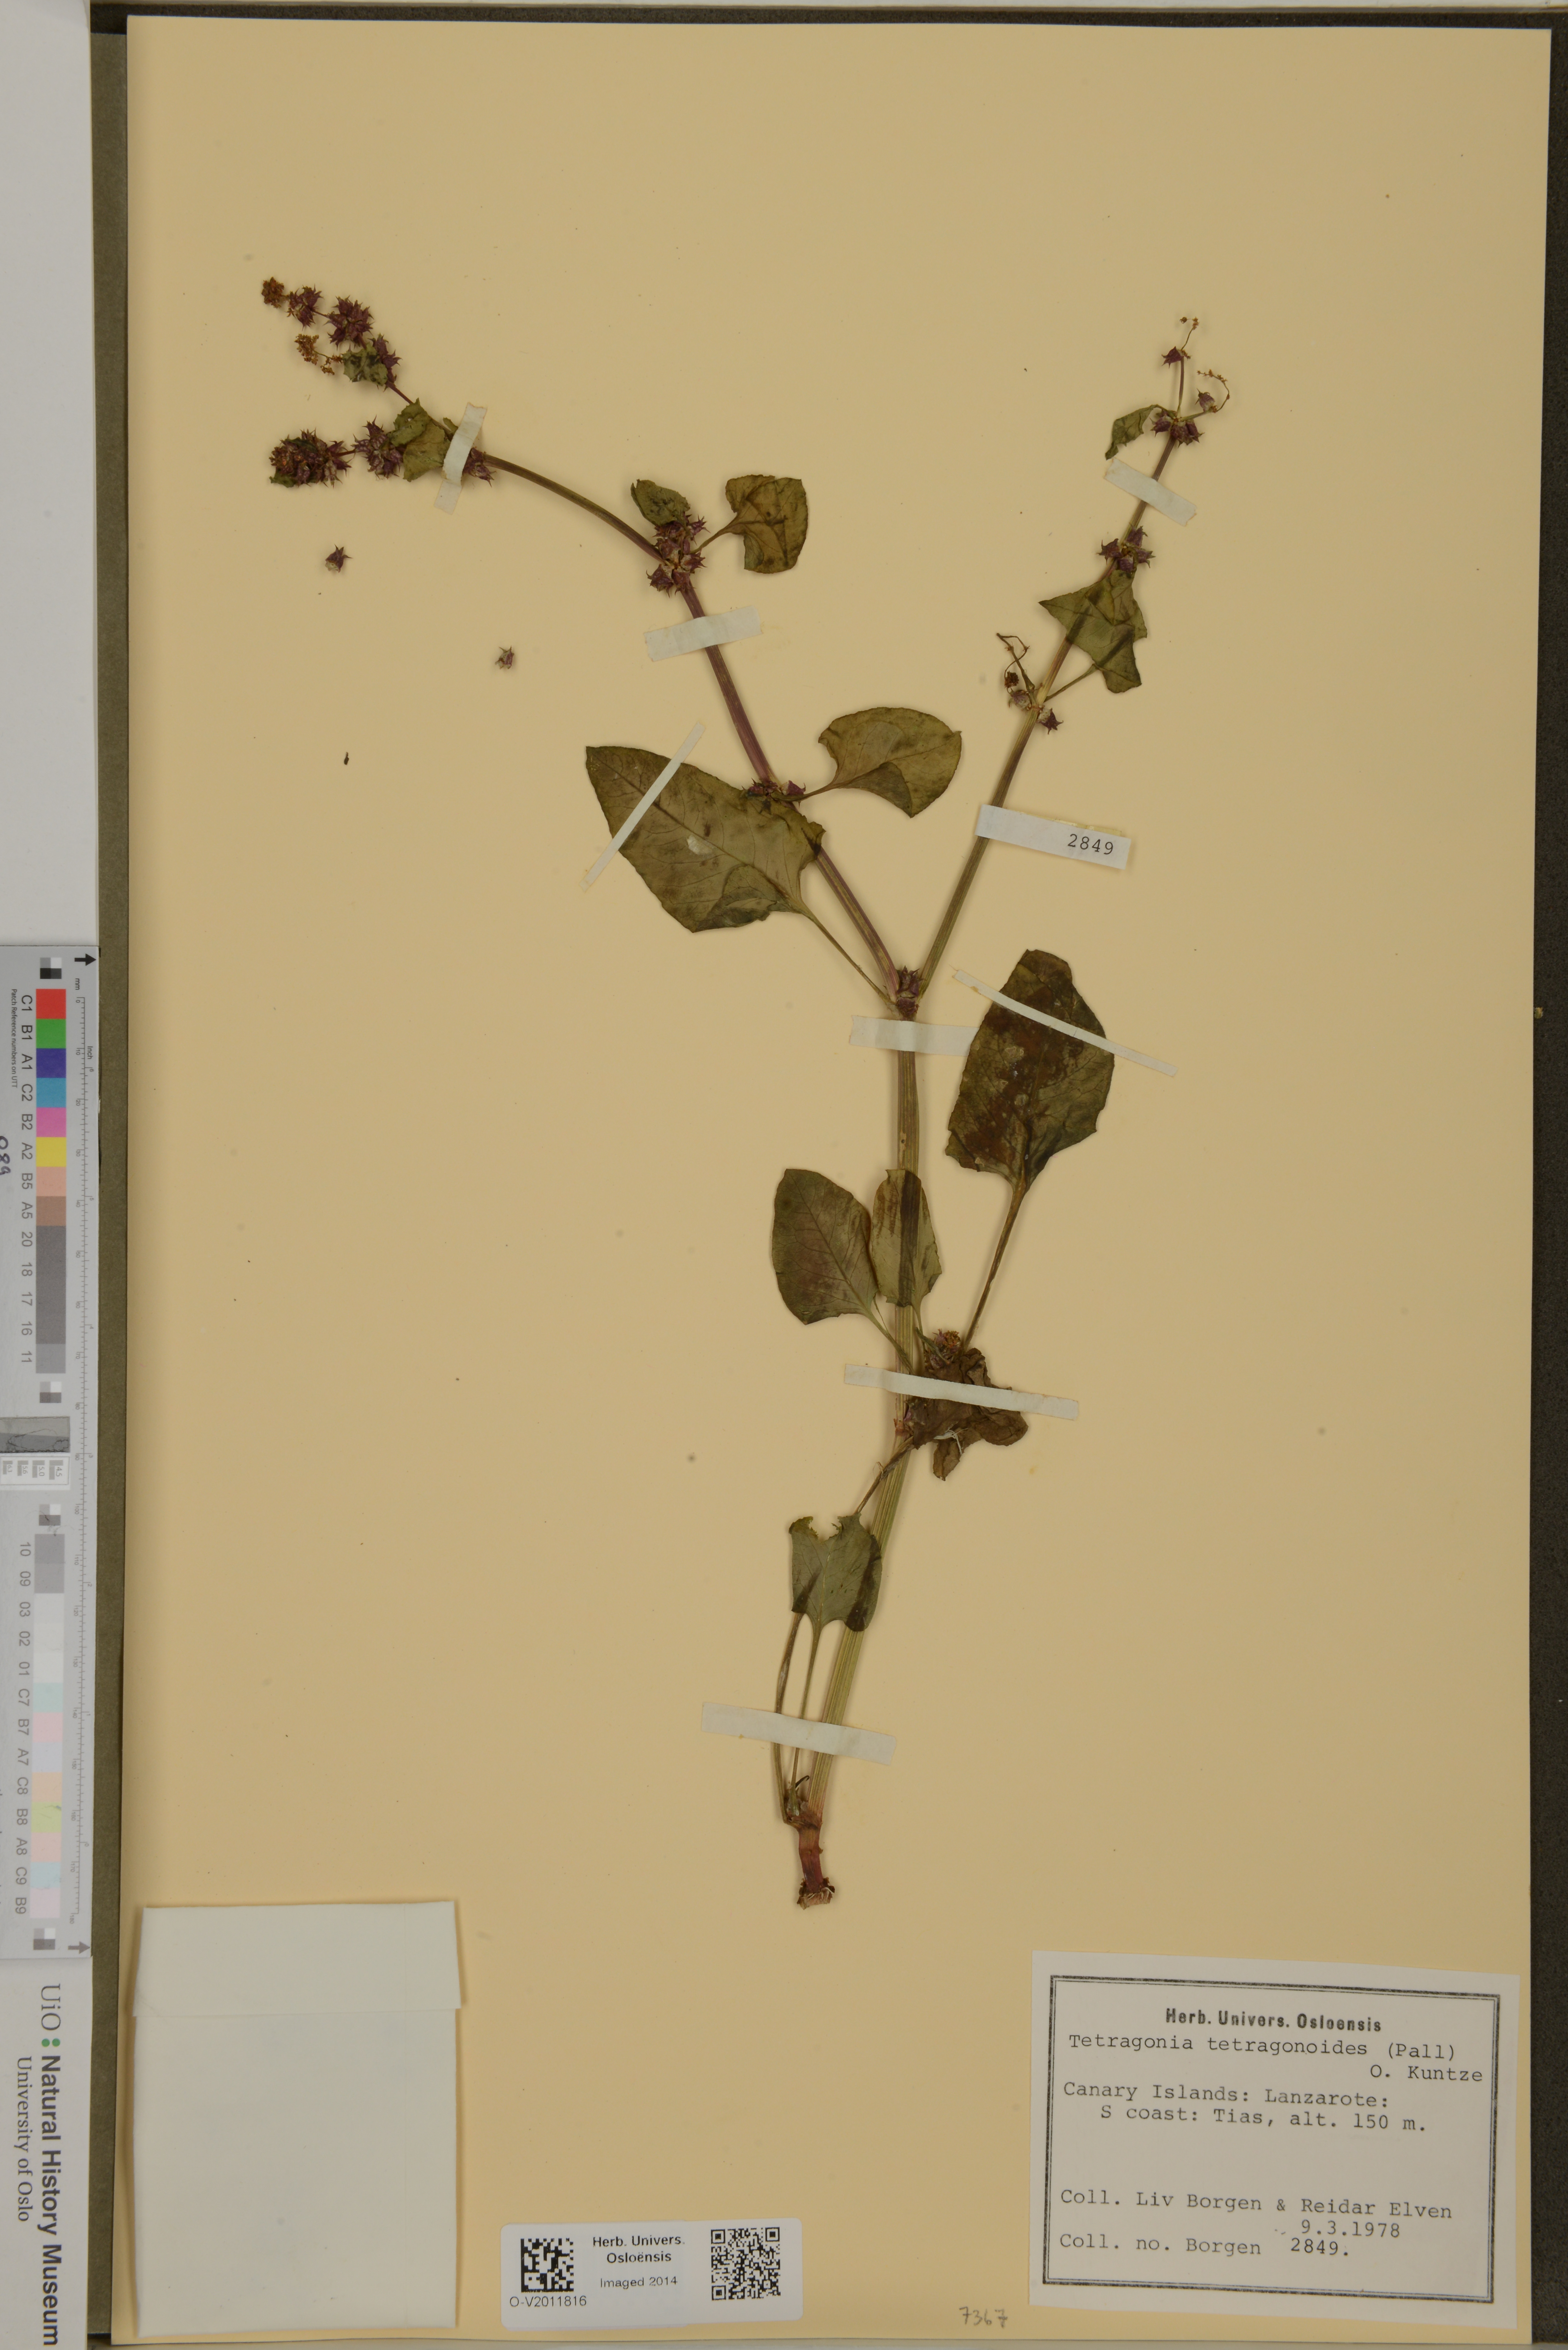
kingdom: Plantae
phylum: Tracheophyta
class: Magnoliopsida
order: Caryophyllales
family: Aizoaceae
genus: Tetragonia
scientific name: Tetragonia tetragonioides
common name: New zealand spinach
